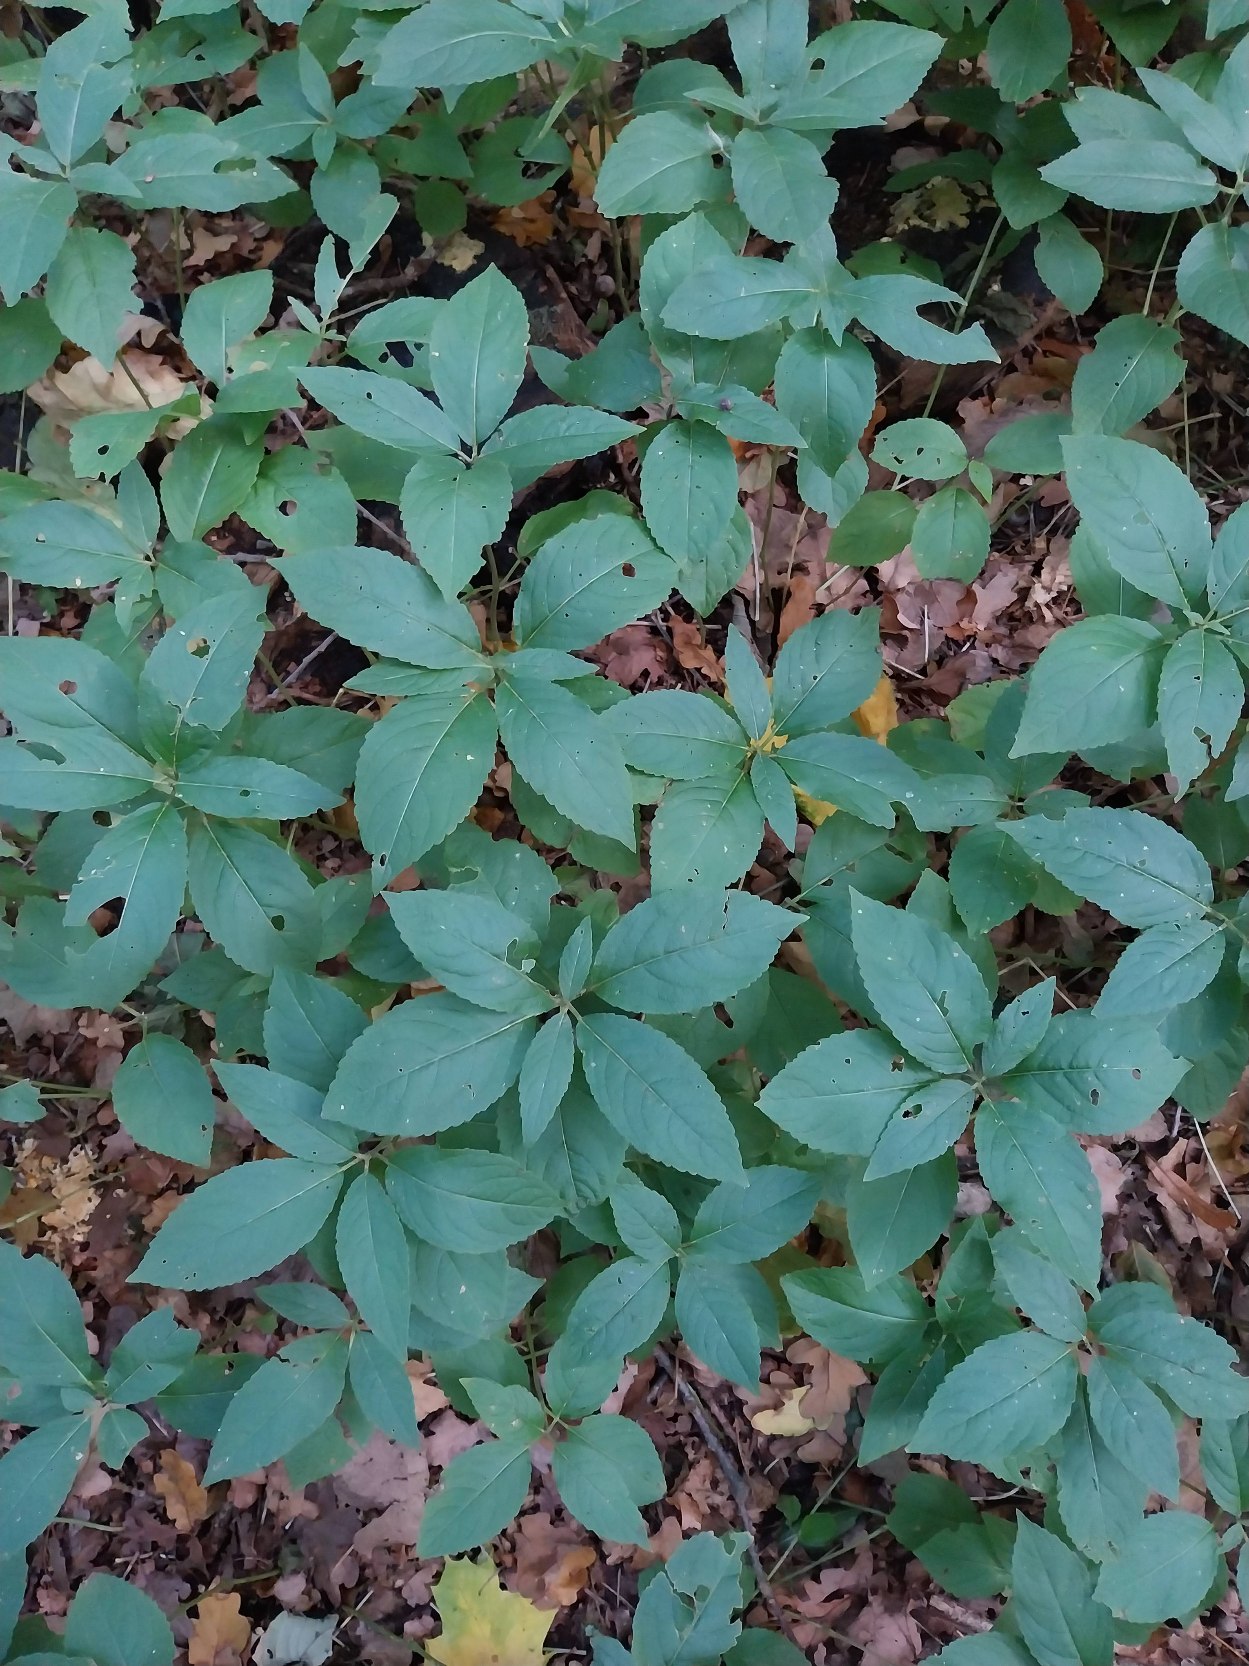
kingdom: Plantae
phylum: Tracheophyta
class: Magnoliopsida
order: Malpighiales
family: Euphorbiaceae
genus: Mercurialis
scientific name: Mercurialis perennis
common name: Almindelig bingelurt
